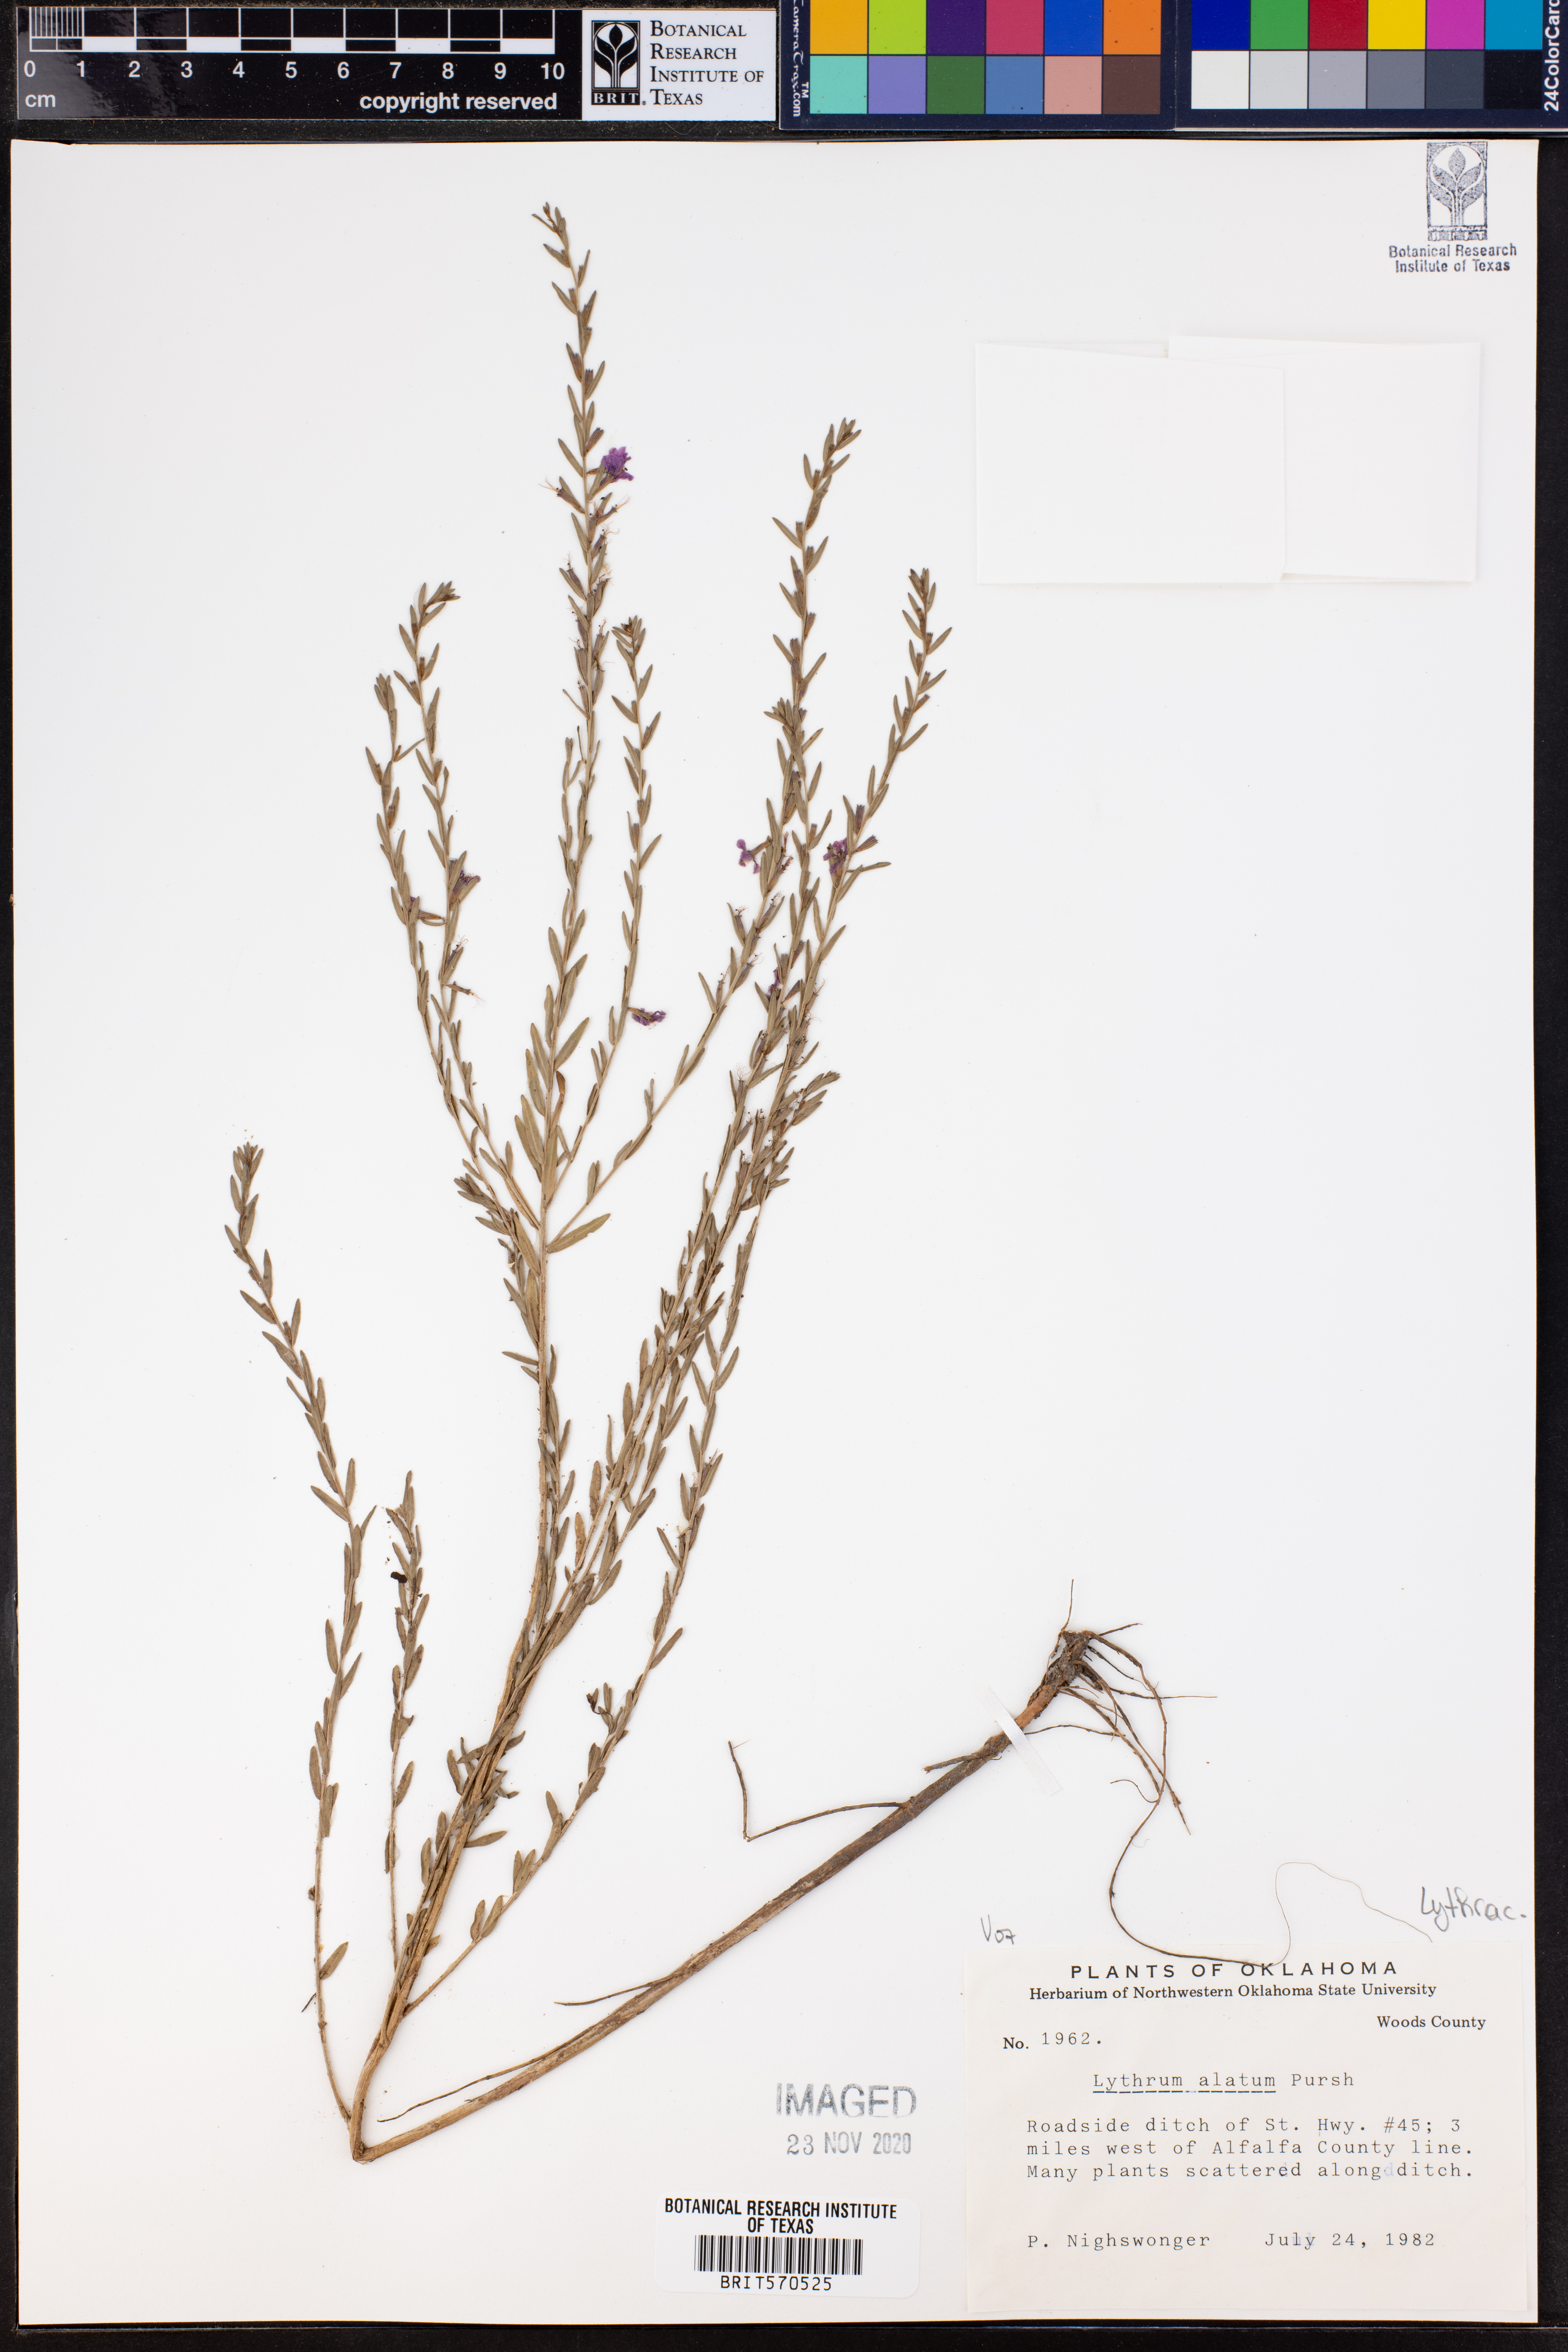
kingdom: Plantae
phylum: Tracheophyta
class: Magnoliopsida
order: Myrtales
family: Lythraceae
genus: Lythrum
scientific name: Lythrum alatum
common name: Winged loosestrife
